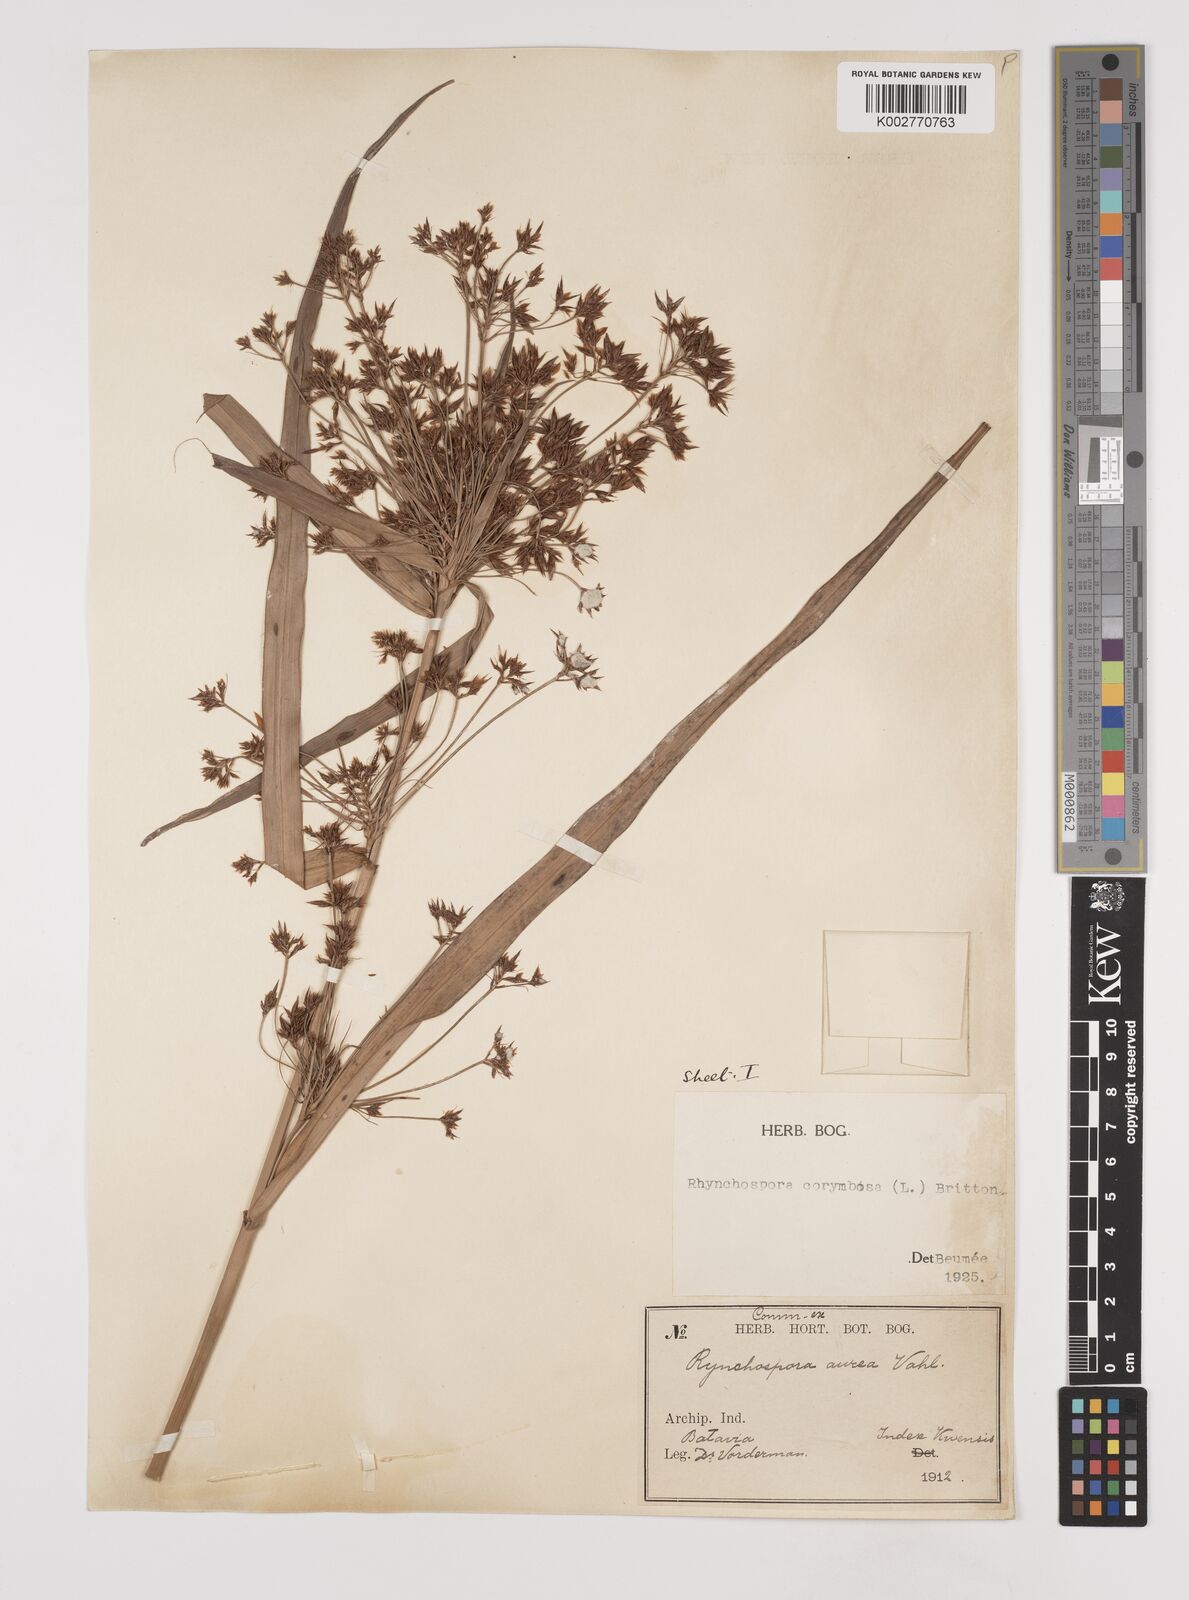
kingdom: Plantae
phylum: Tracheophyta
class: Liliopsida
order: Poales
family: Cyperaceae
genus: Rhynchospora
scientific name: Rhynchospora corymbosa
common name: Golden beak sedge
